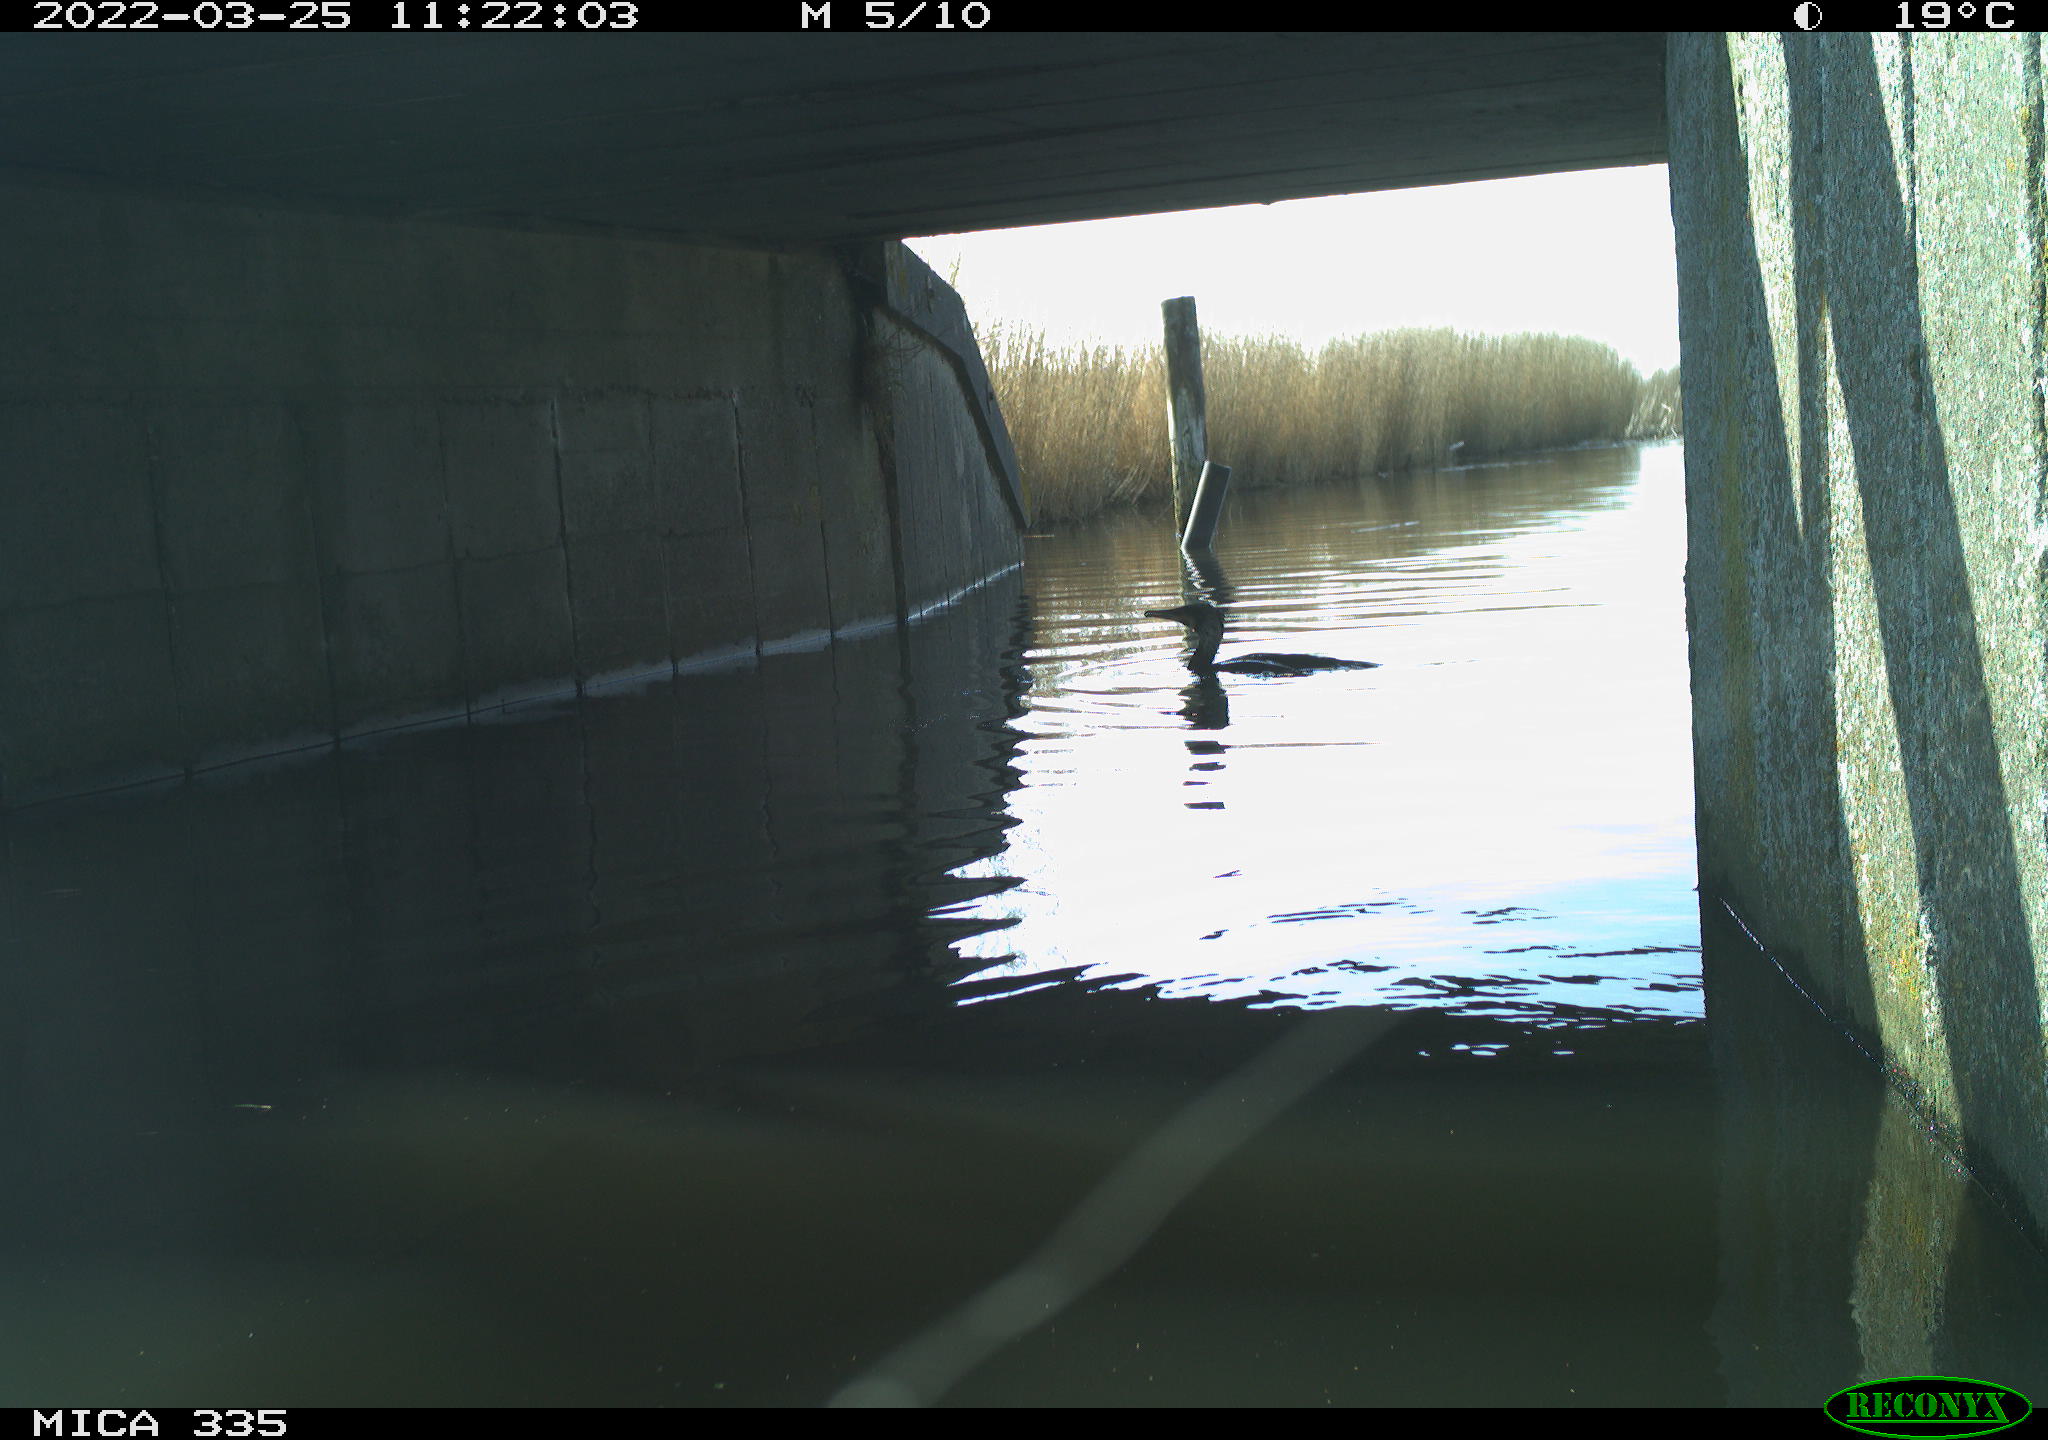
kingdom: Animalia
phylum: Chordata
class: Aves
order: Suliformes
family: Phalacrocoracidae
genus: Phalacrocorax
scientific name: Phalacrocorax carbo
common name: Great cormorant
